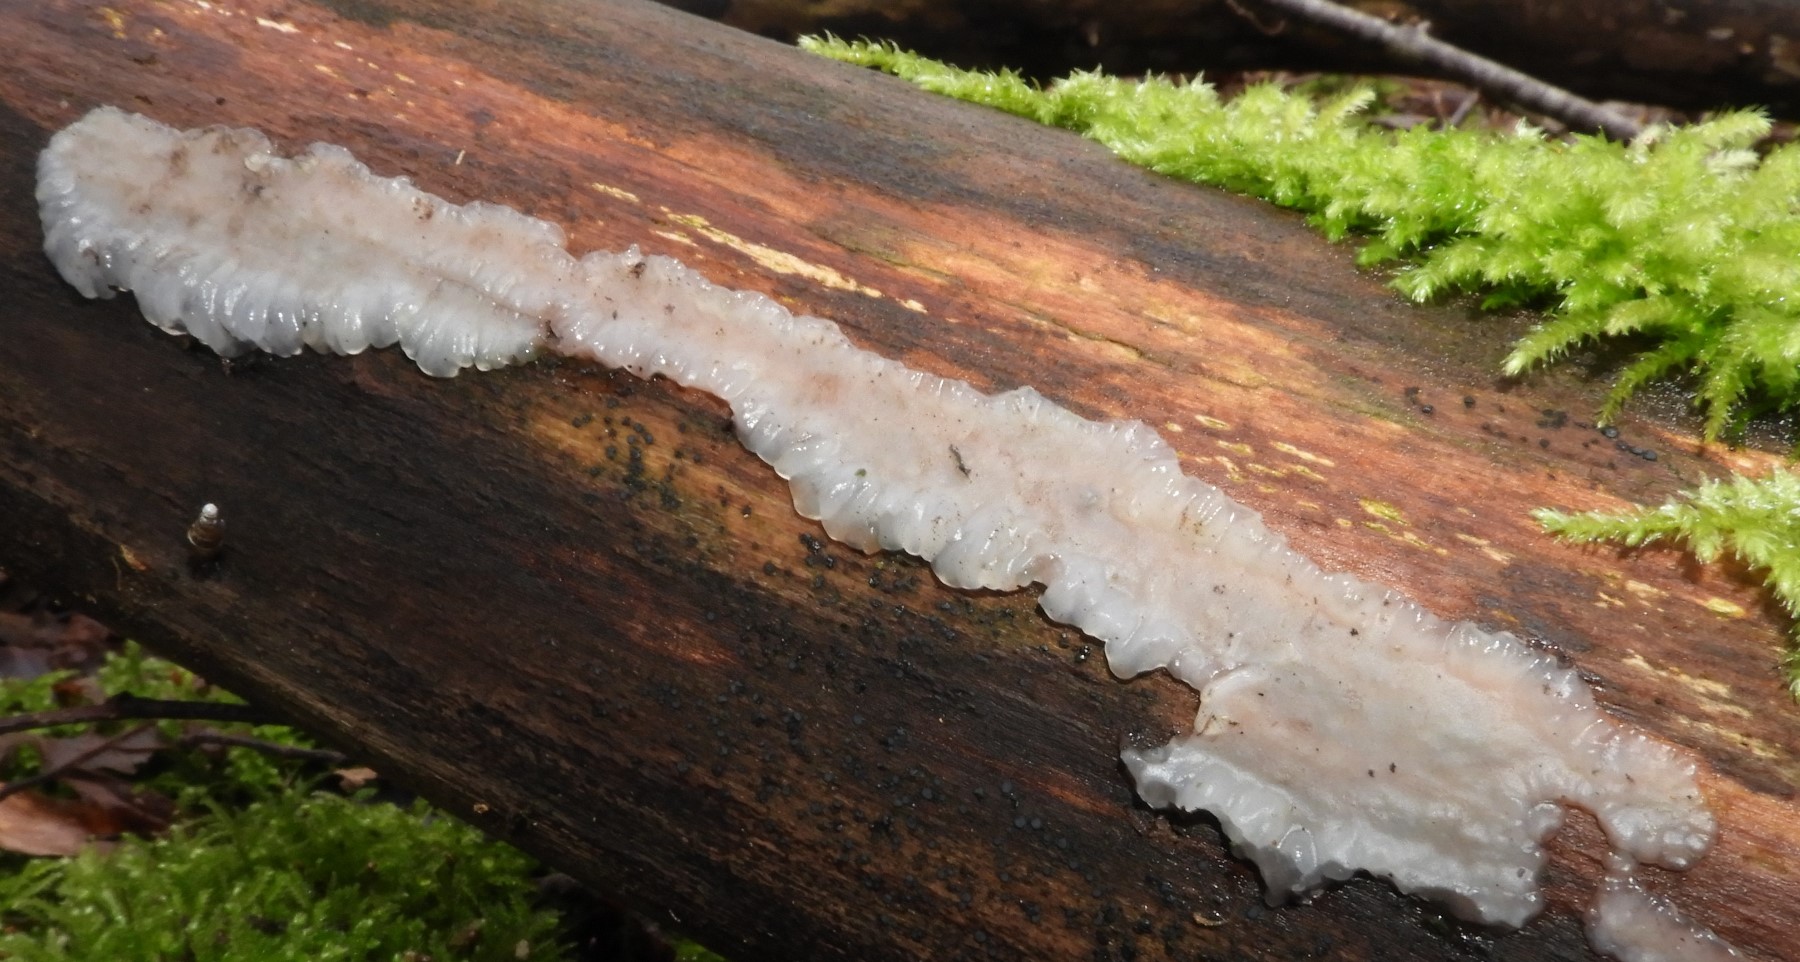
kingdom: Fungi
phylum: Basidiomycota
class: Agaricomycetes
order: Auriculariales
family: Auriculariaceae
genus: Exidia
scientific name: Exidia thuretiana
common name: hvidlig bævretop
